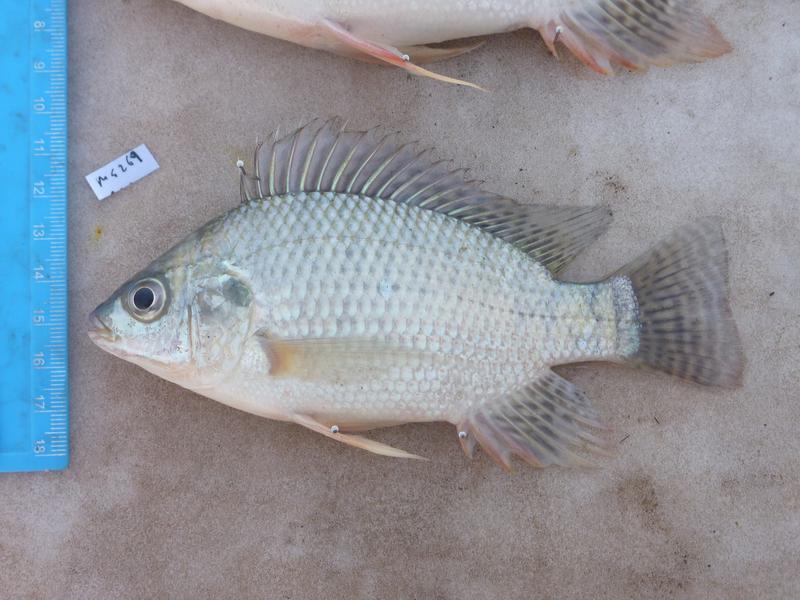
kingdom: Animalia
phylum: Chordata
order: Perciformes
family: Cichlidae
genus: Oreochromis
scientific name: Oreochromis niloticus
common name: Nile tilapia
